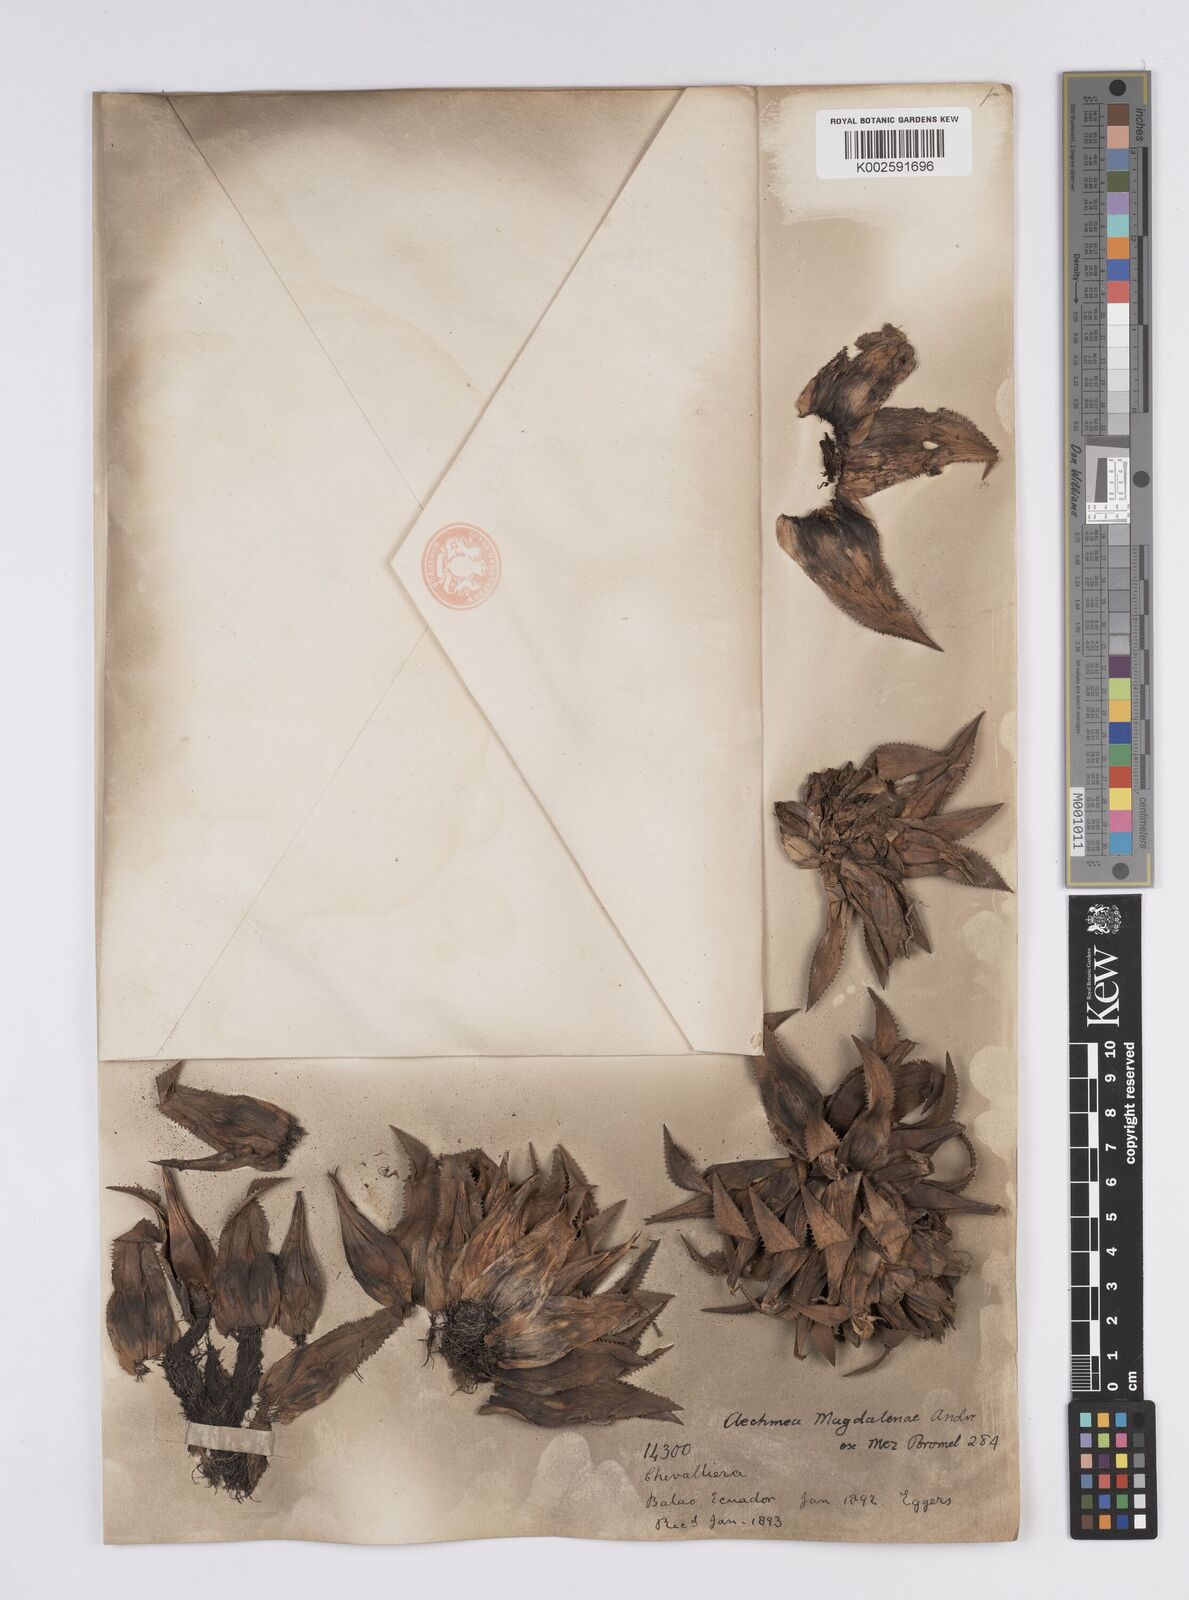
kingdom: Plantae
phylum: Tracheophyta
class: Liliopsida
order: Poales
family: Bromeliaceae
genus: Aechmea
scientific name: Aechmea magdalenae
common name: Arghan
